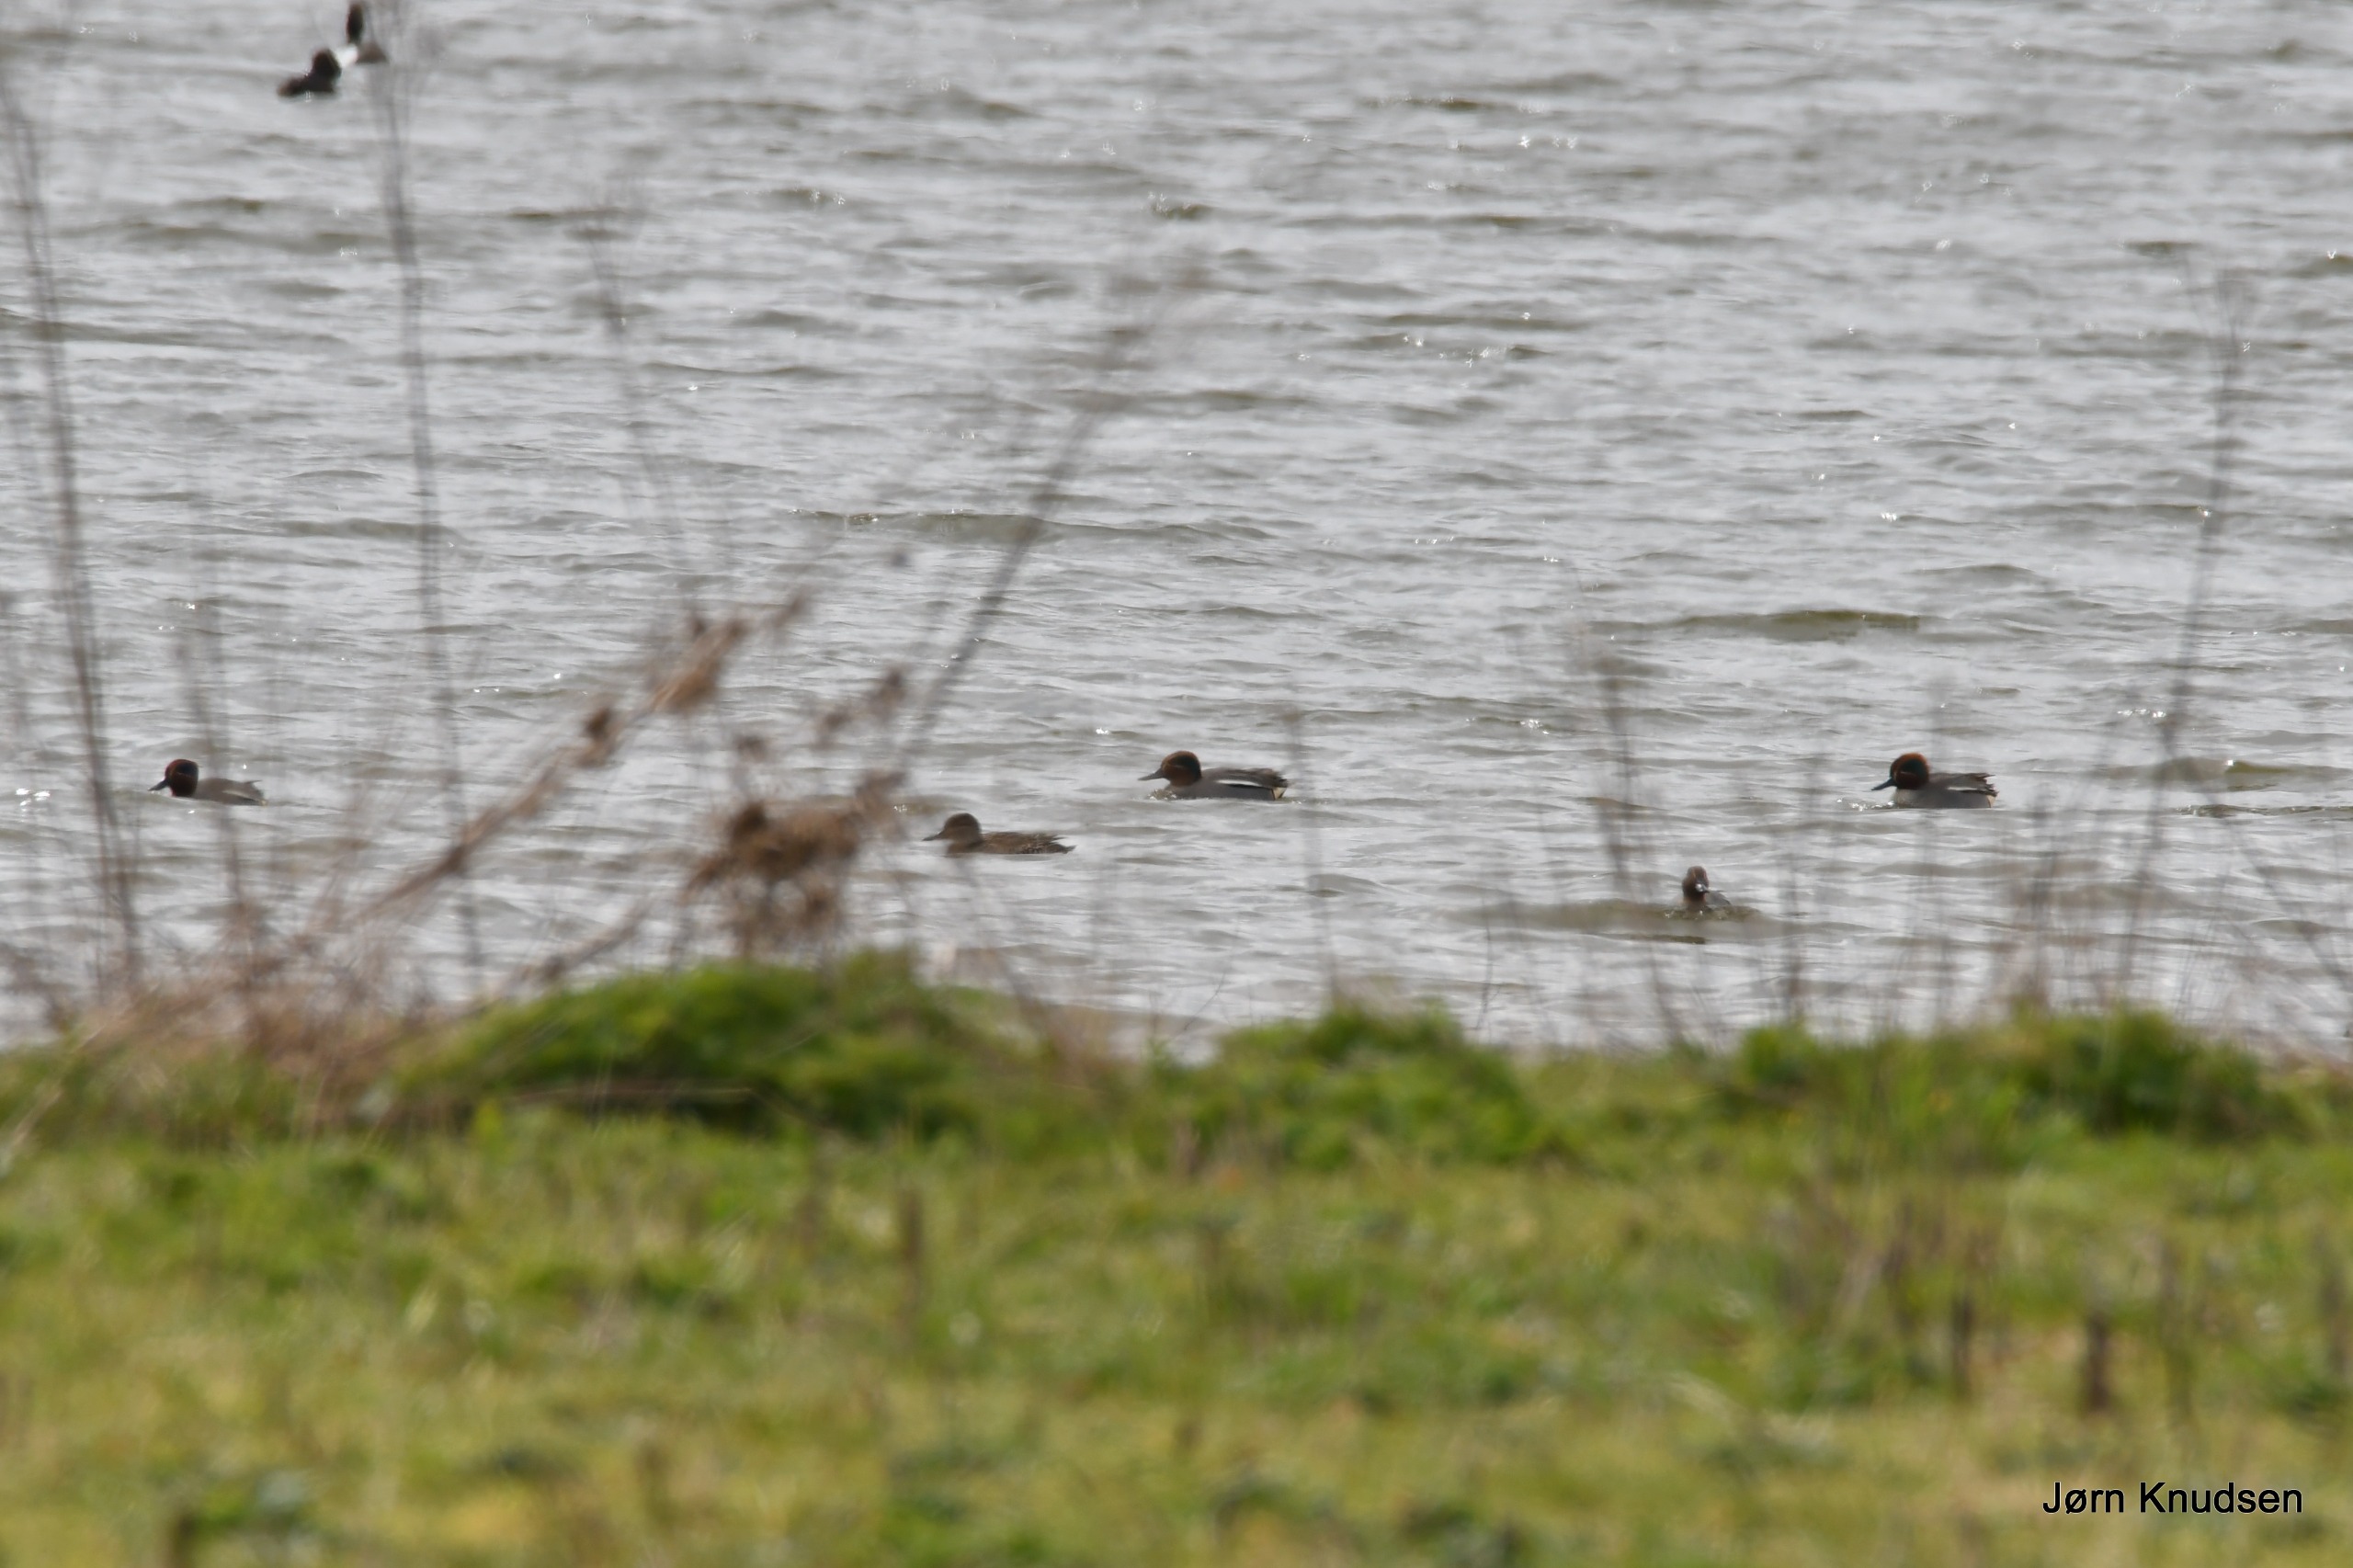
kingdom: Animalia
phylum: Chordata
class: Aves
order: Anseriformes
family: Anatidae
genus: Anas
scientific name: Anas crecca
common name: Krikand
